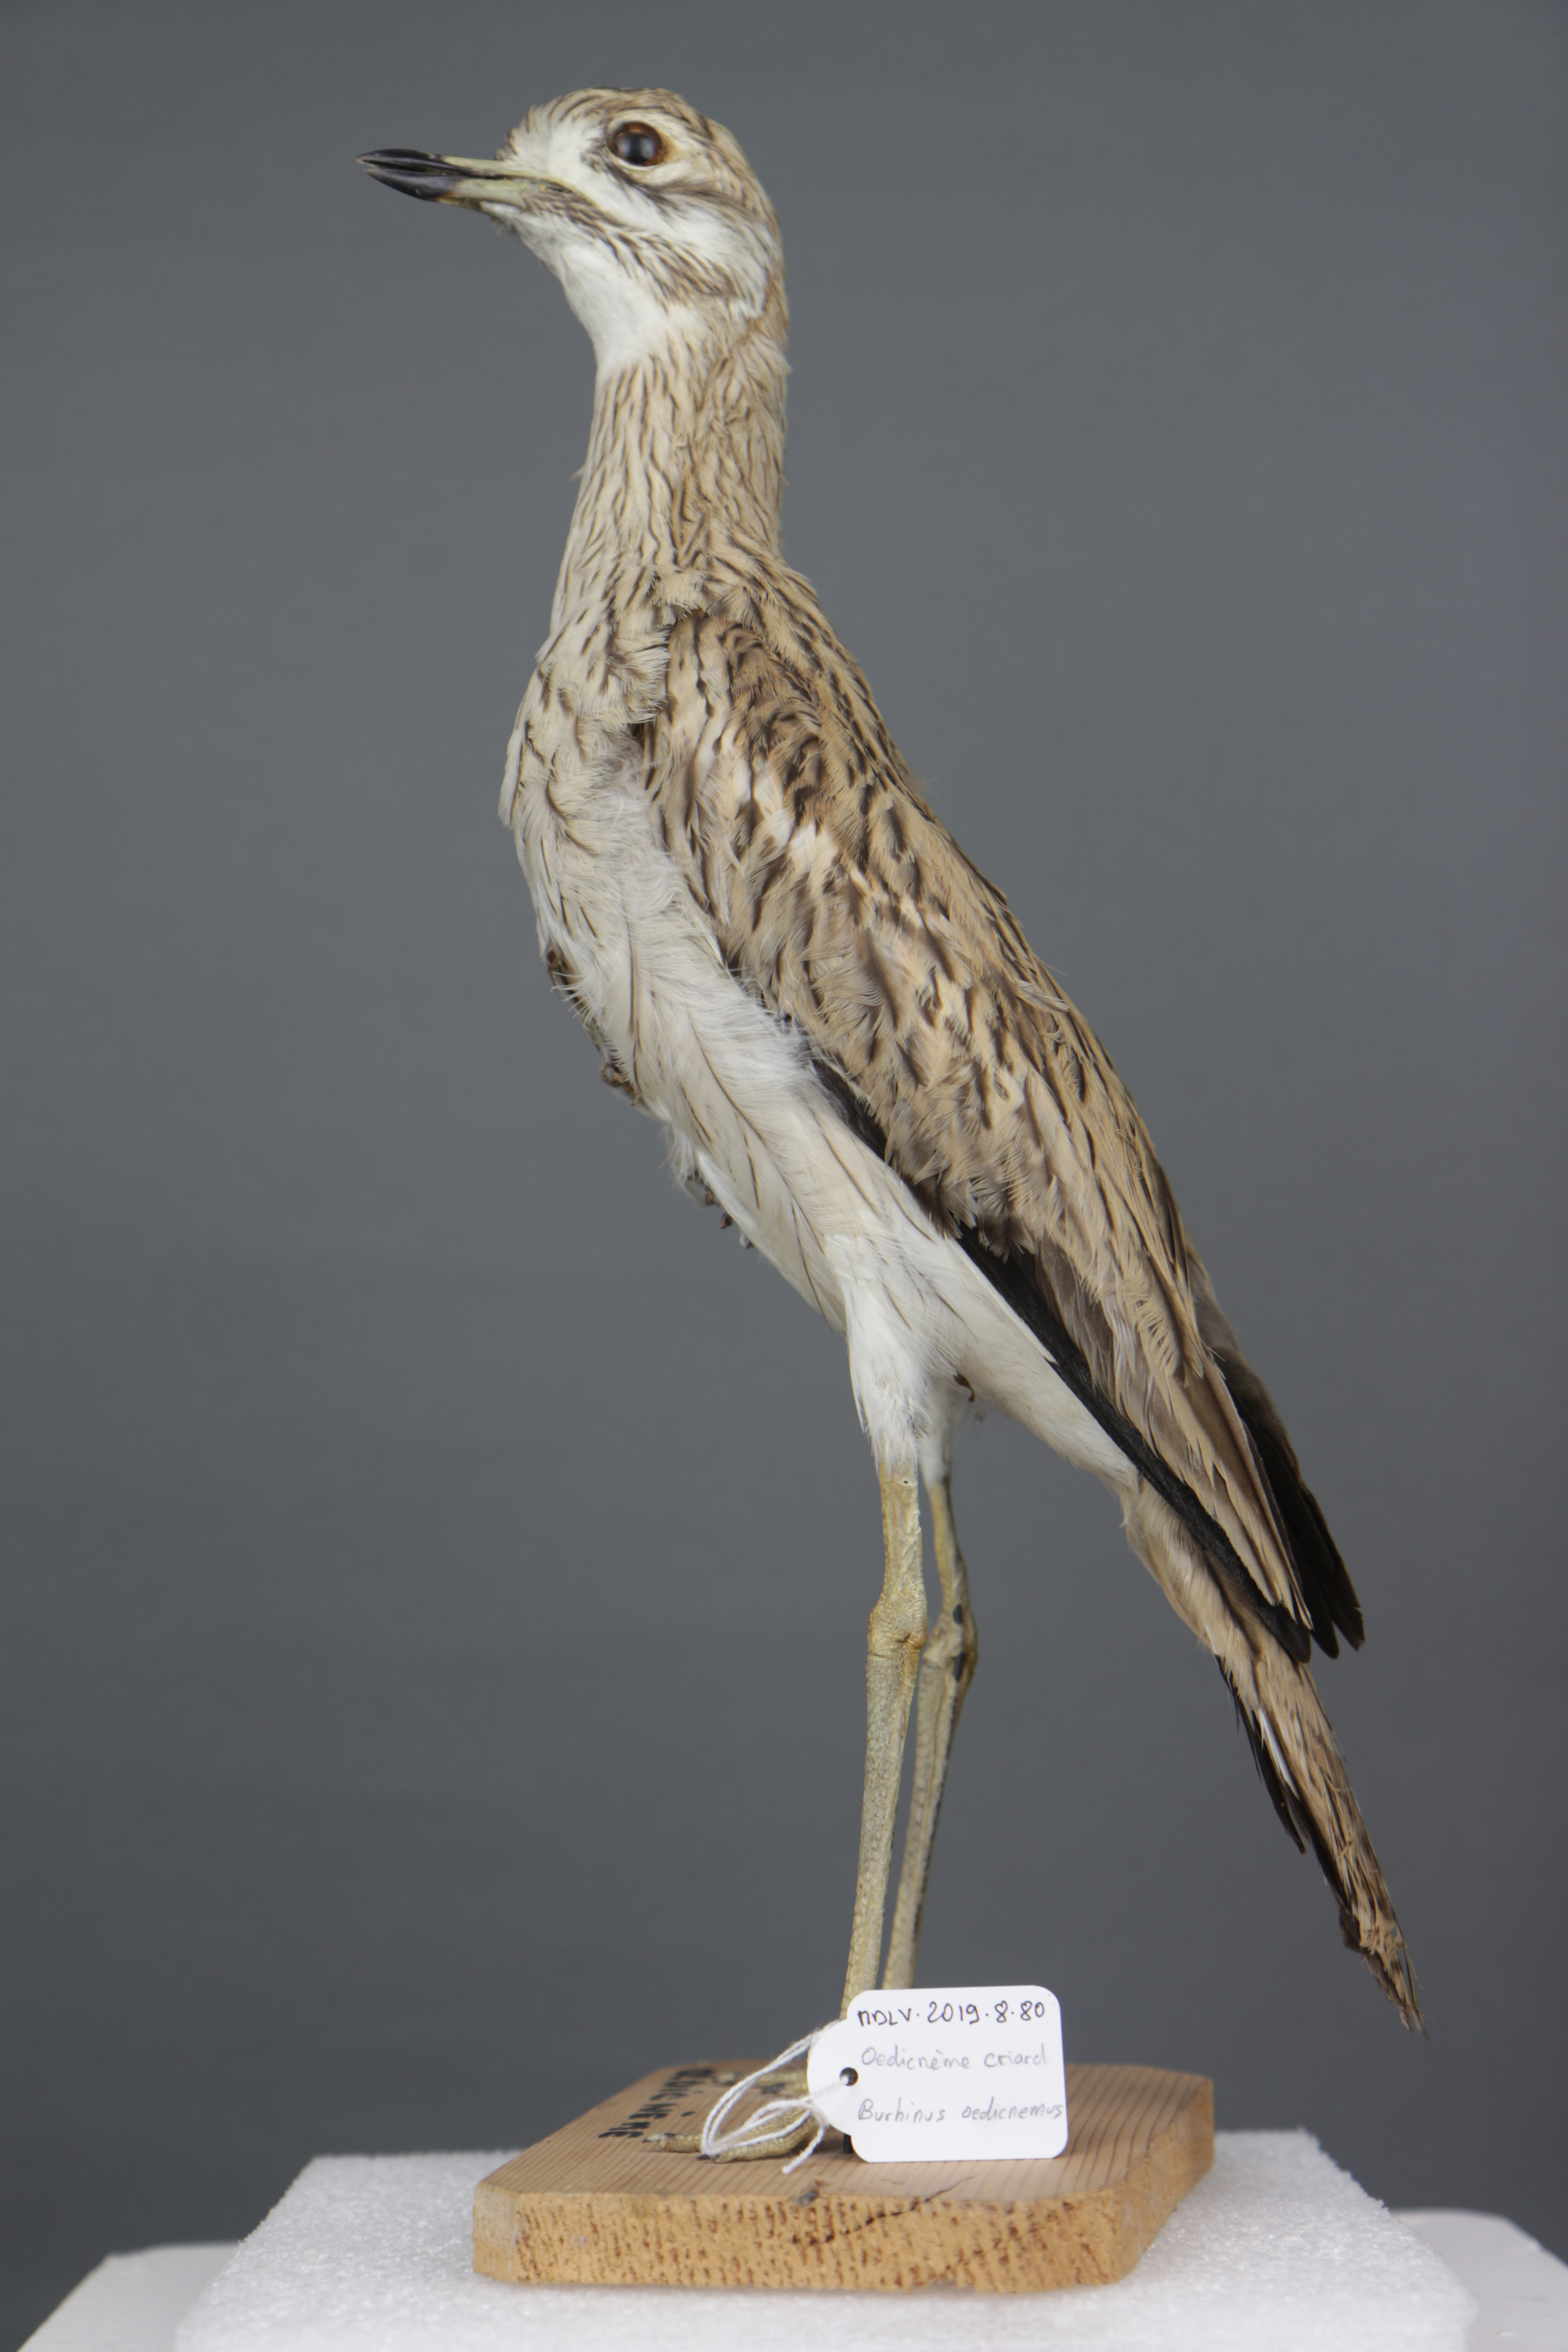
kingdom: Animalia
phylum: Chordata
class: Aves
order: Charadriiformes
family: Burhinidae
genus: Burhinus
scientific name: Burhinus oedicnemus
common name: Eurasian stone-curlew
